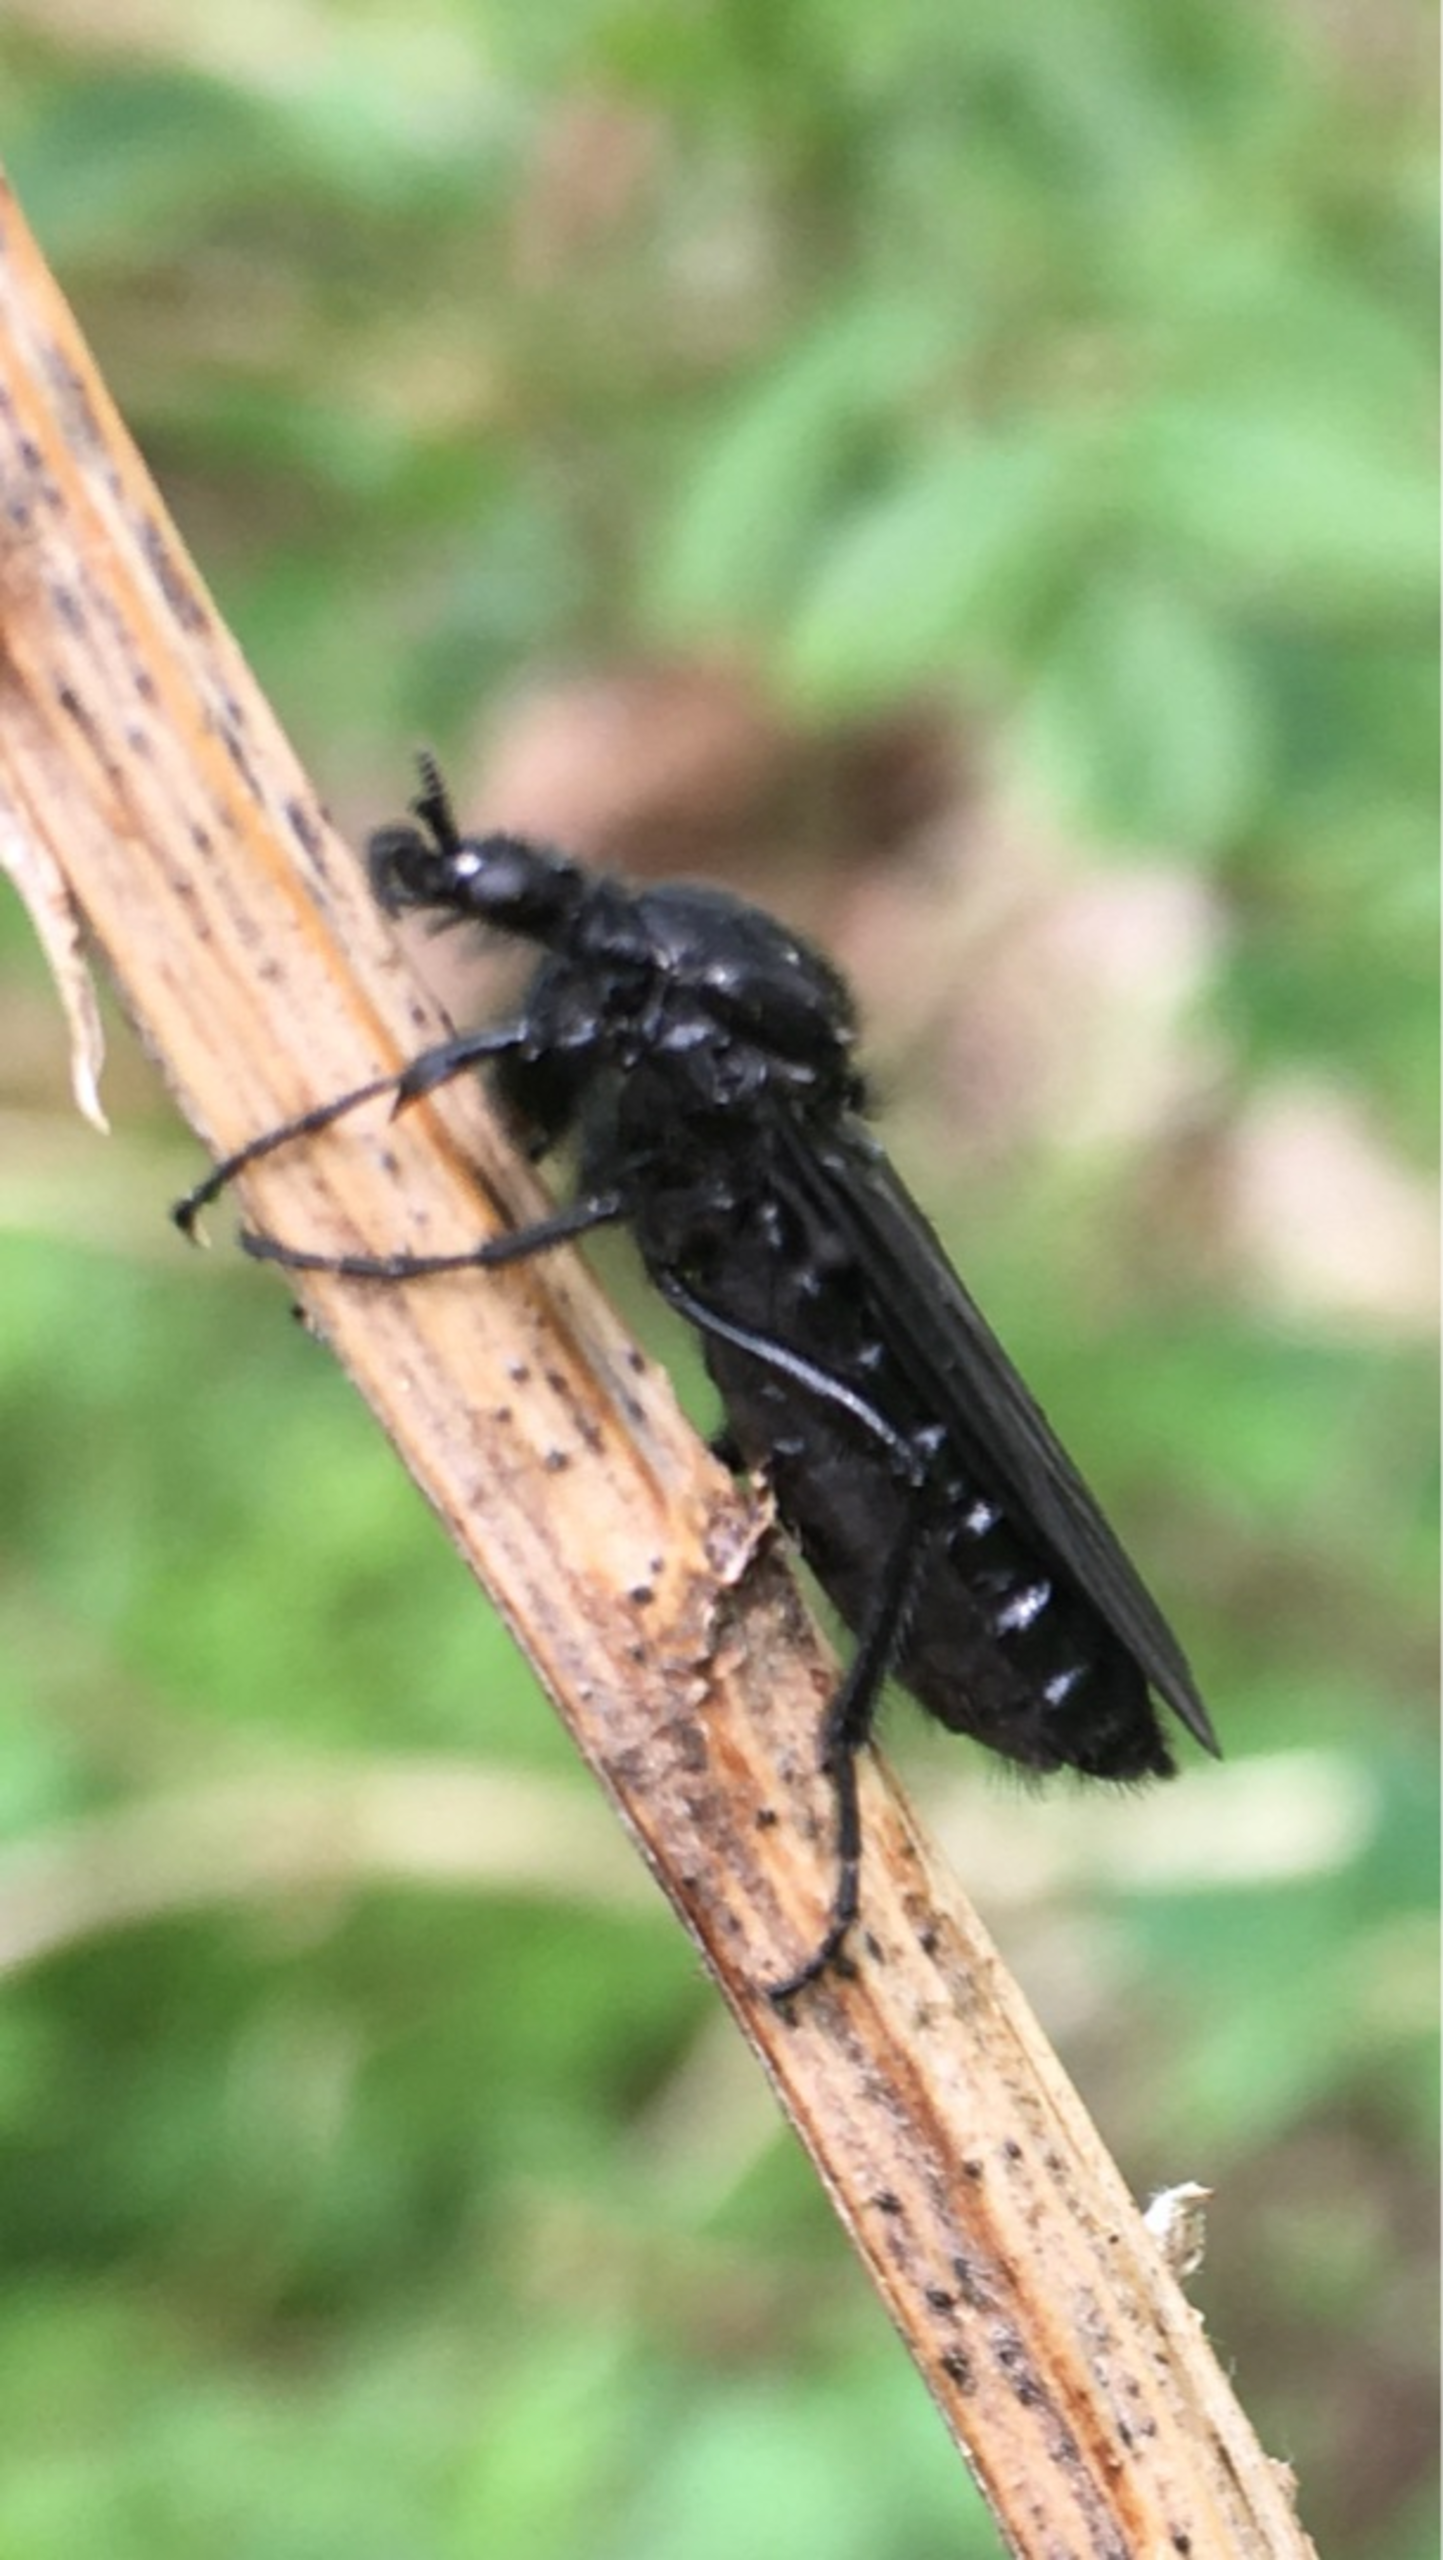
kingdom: Animalia
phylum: Arthropoda
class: Insecta
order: Diptera
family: Bibionidae
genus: Bibio
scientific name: Bibio marci
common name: Skovhårmyg
